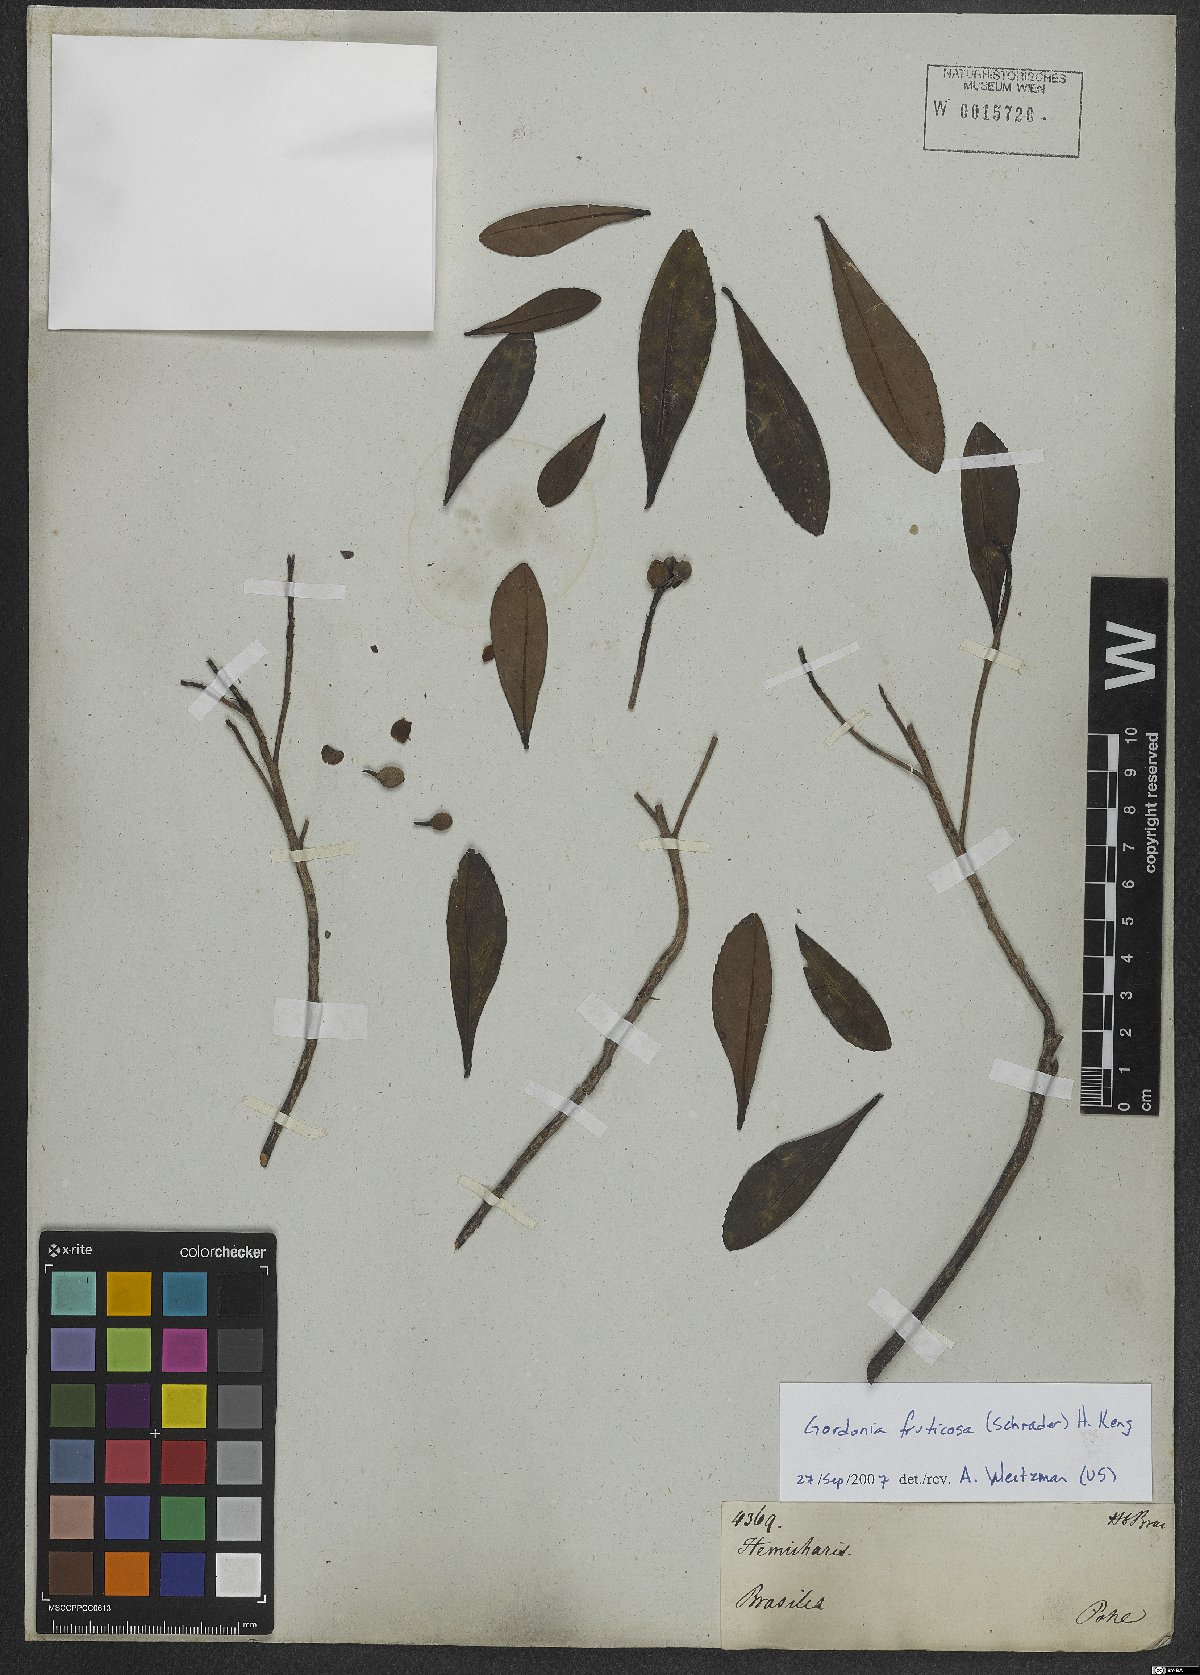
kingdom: Plantae
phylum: Tracheophyta
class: Magnoliopsida
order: Ericales
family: Theaceae
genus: Gordonia
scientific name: Gordonia fruticosa
